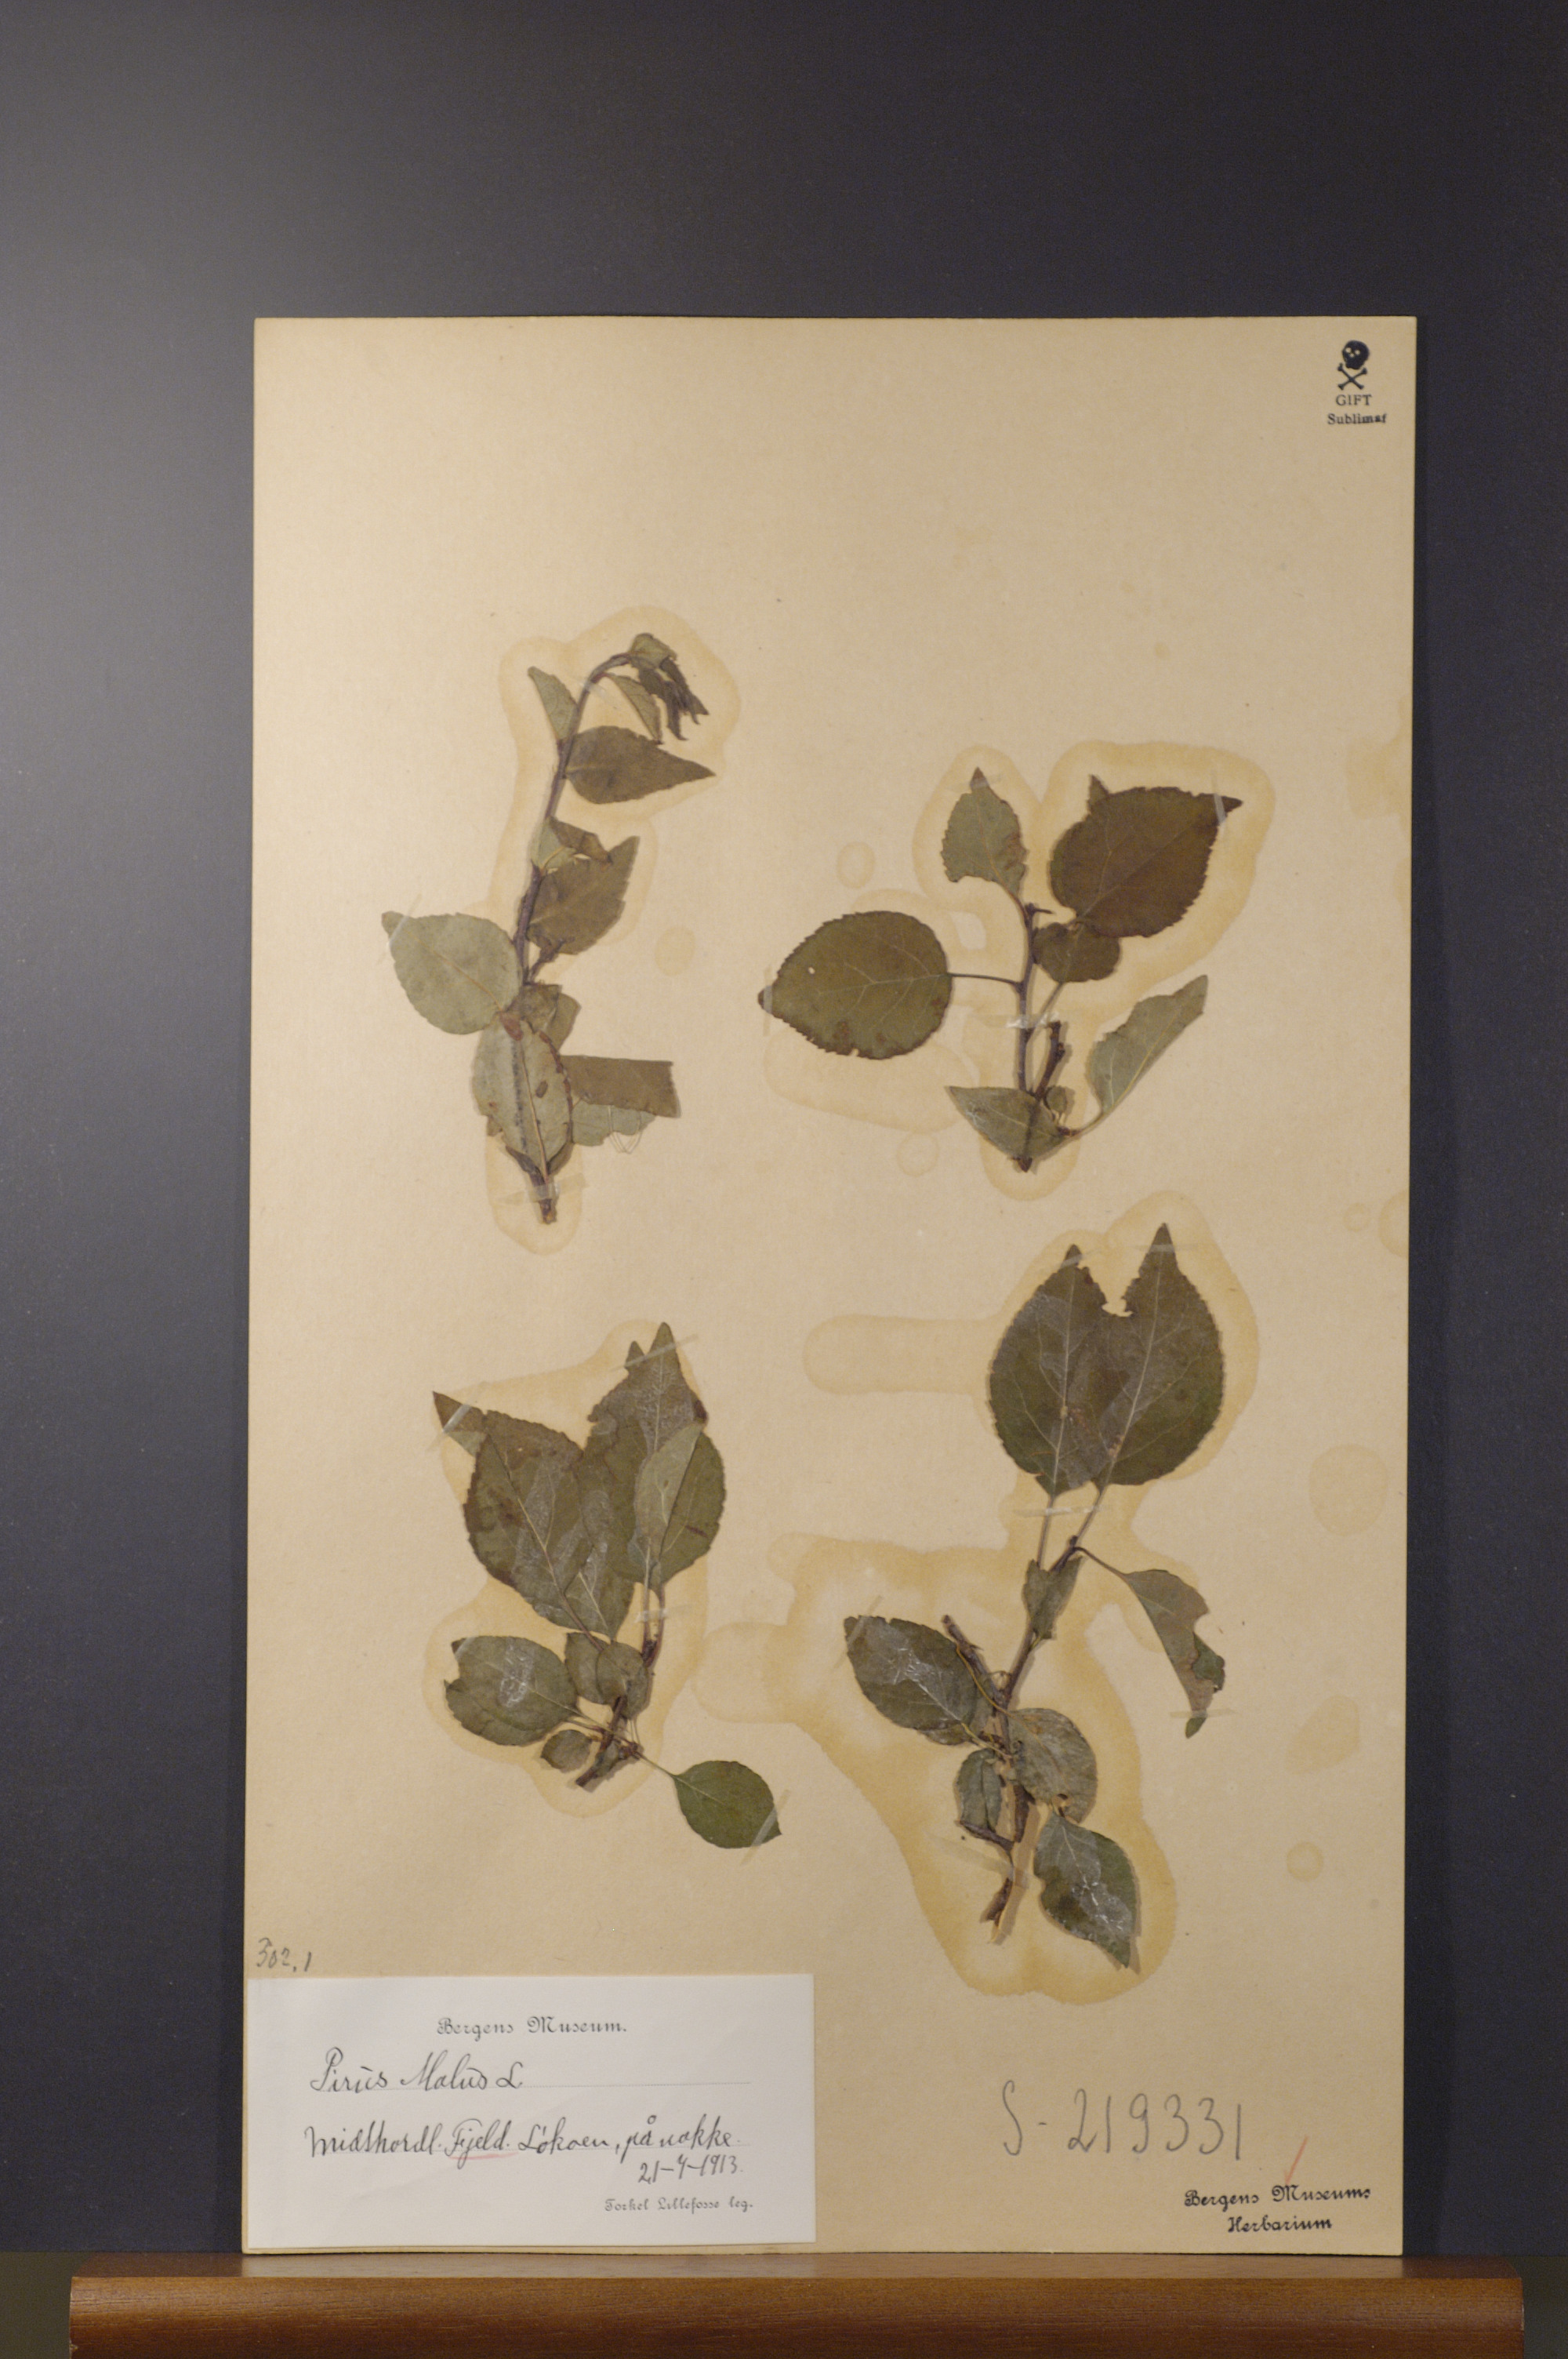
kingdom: Plantae
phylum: Tracheophyta
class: Magnoliopsida
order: Rosales
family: Rosaceae
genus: Malus
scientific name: Malus domestica
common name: Apple
